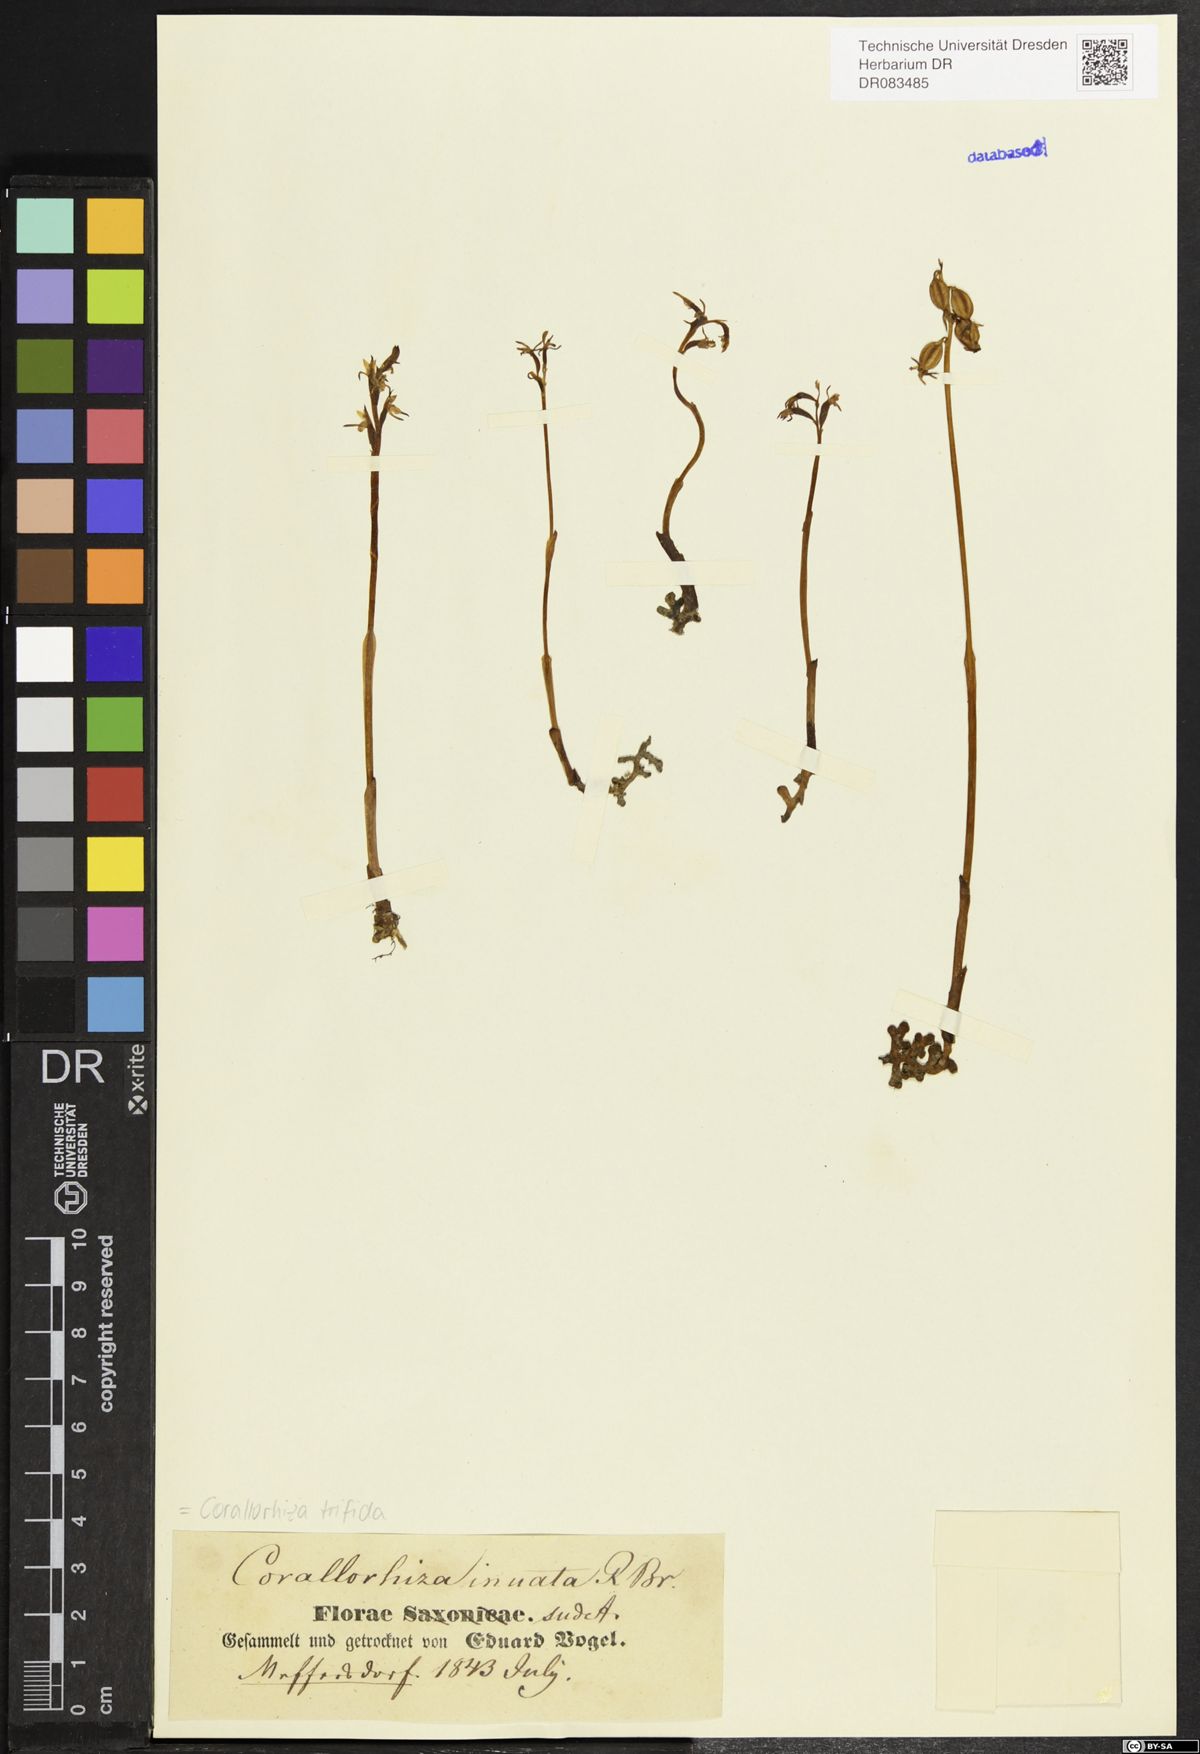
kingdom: Plantae
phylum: Tracheophyta
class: Liliopsida
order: Asparagales
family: Orchidaceae
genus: Corallorhiza
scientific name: Corallorhiza trifida
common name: Yellow coralroot
